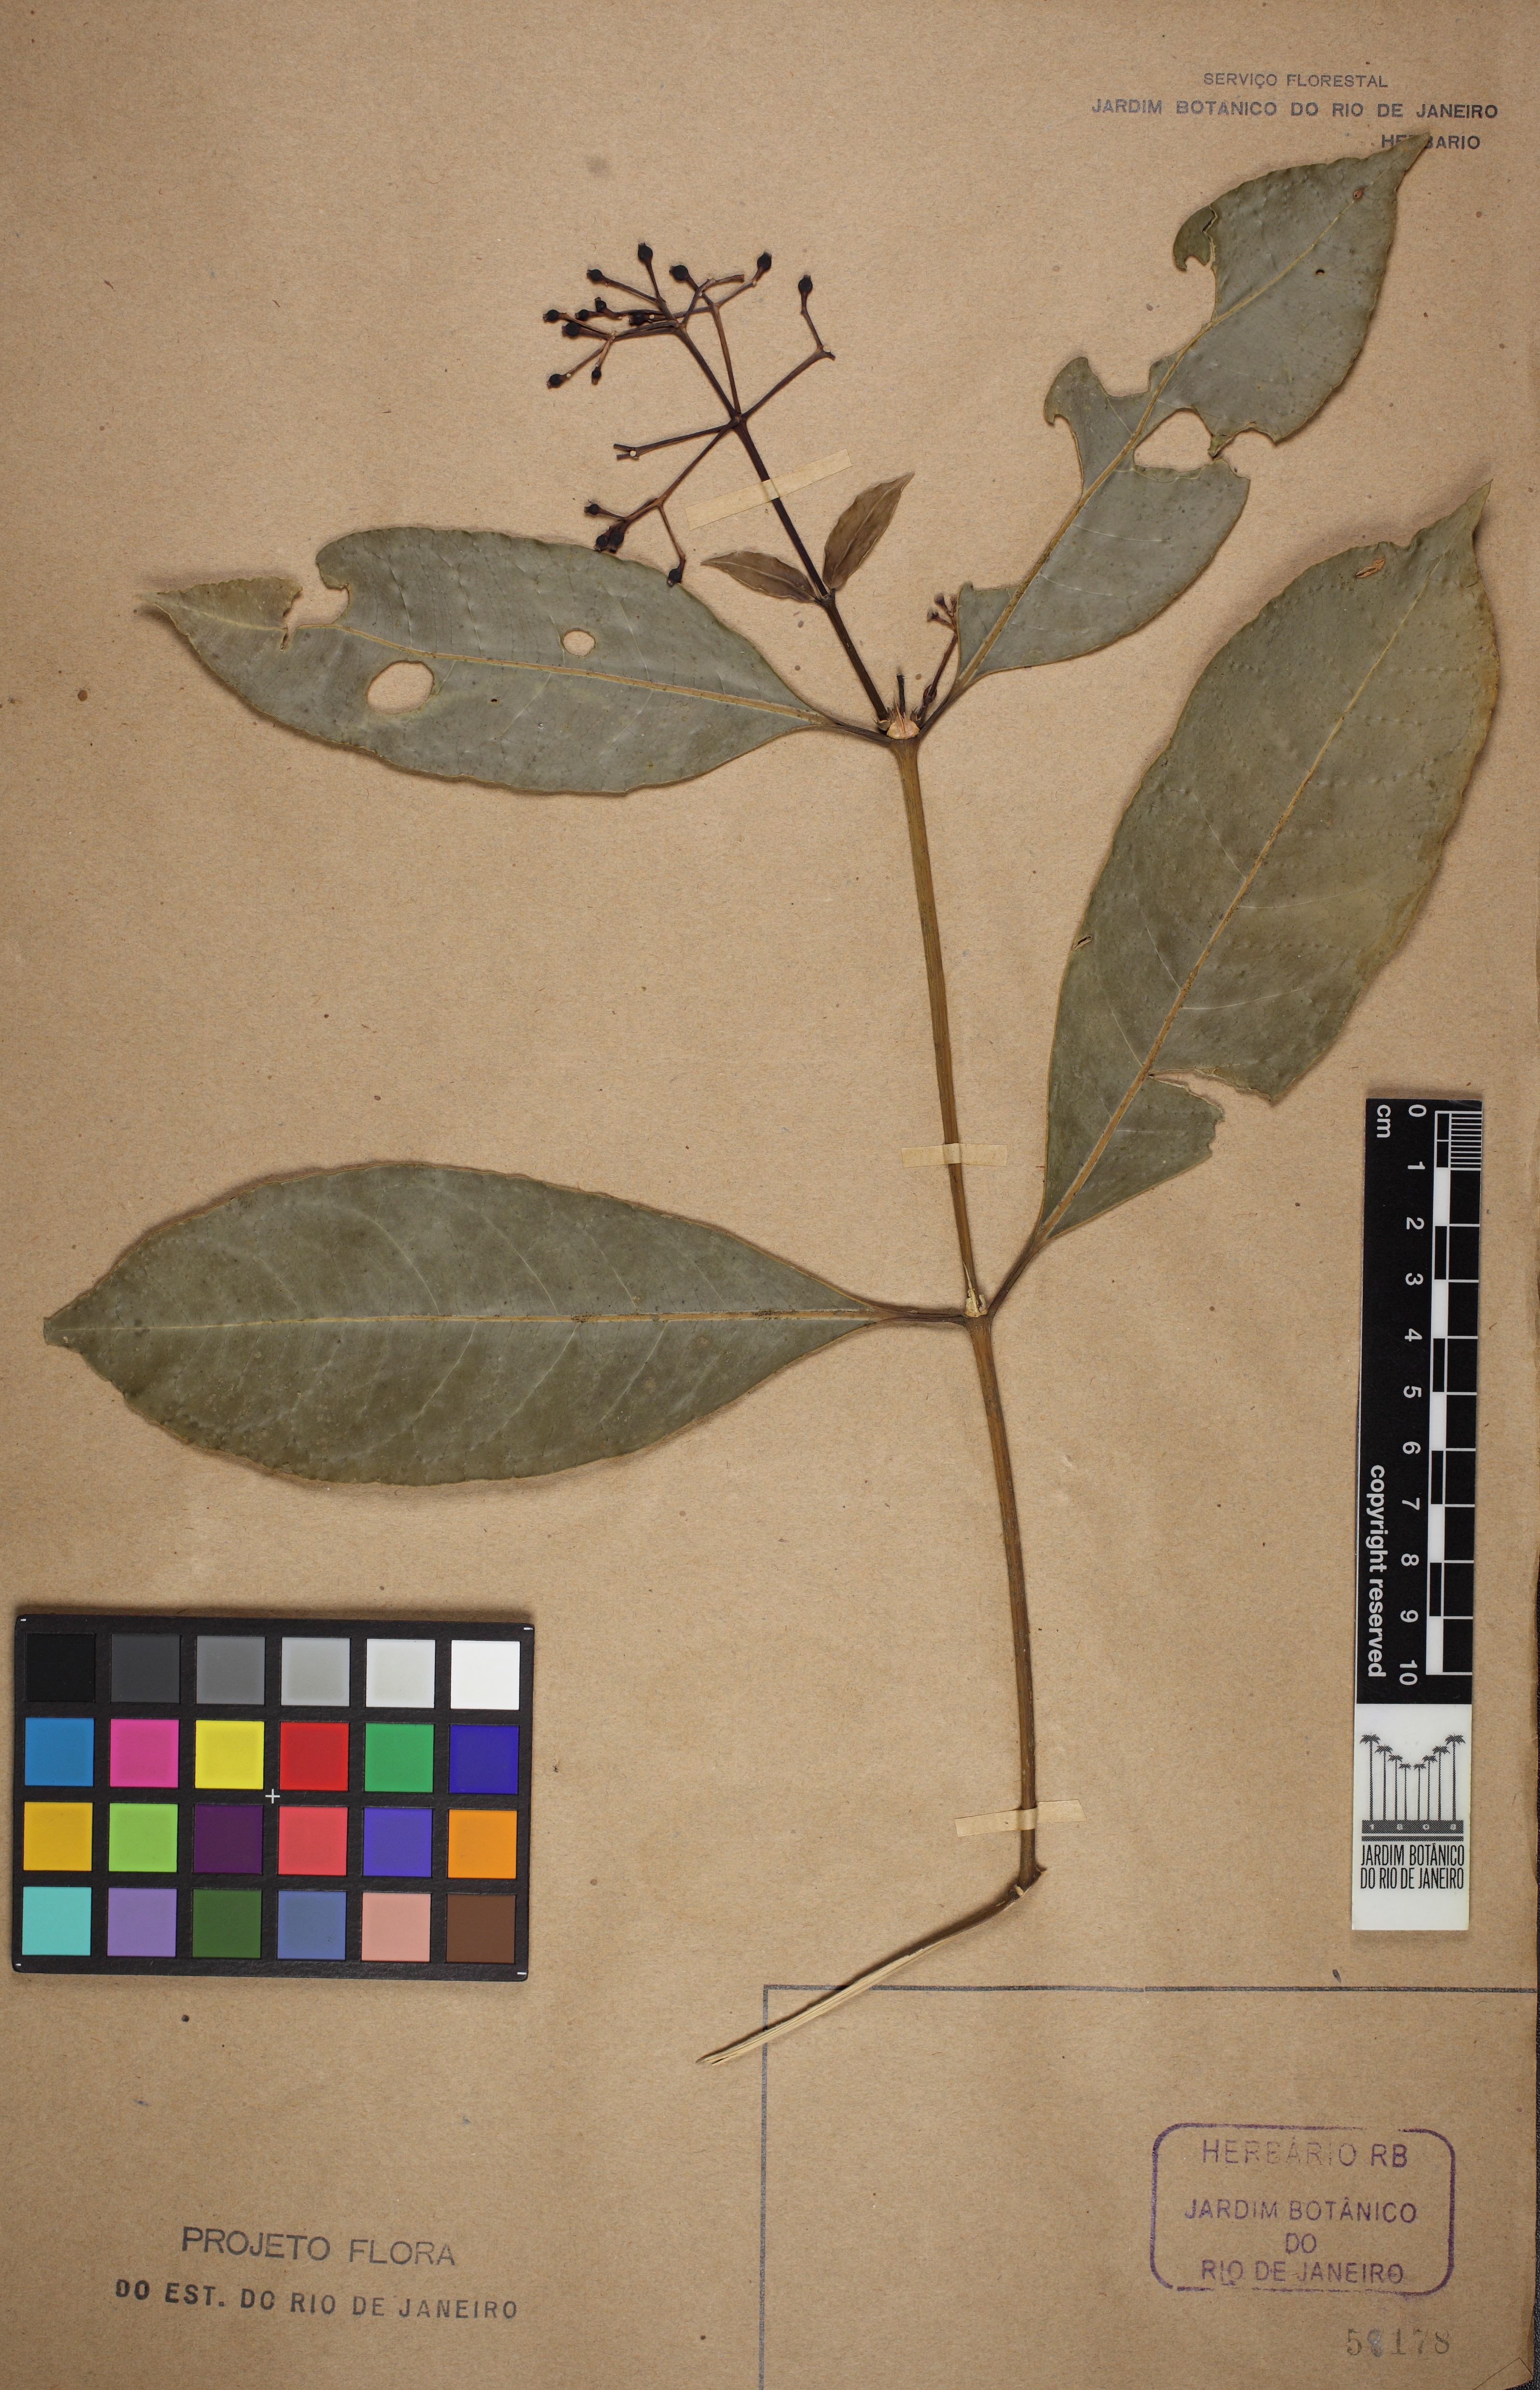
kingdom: Plantae
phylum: Tracheophyta
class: Magnoliopsida
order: Gentianales
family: Rubiaceae
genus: Faramea
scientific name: Faramea tenuiflora
